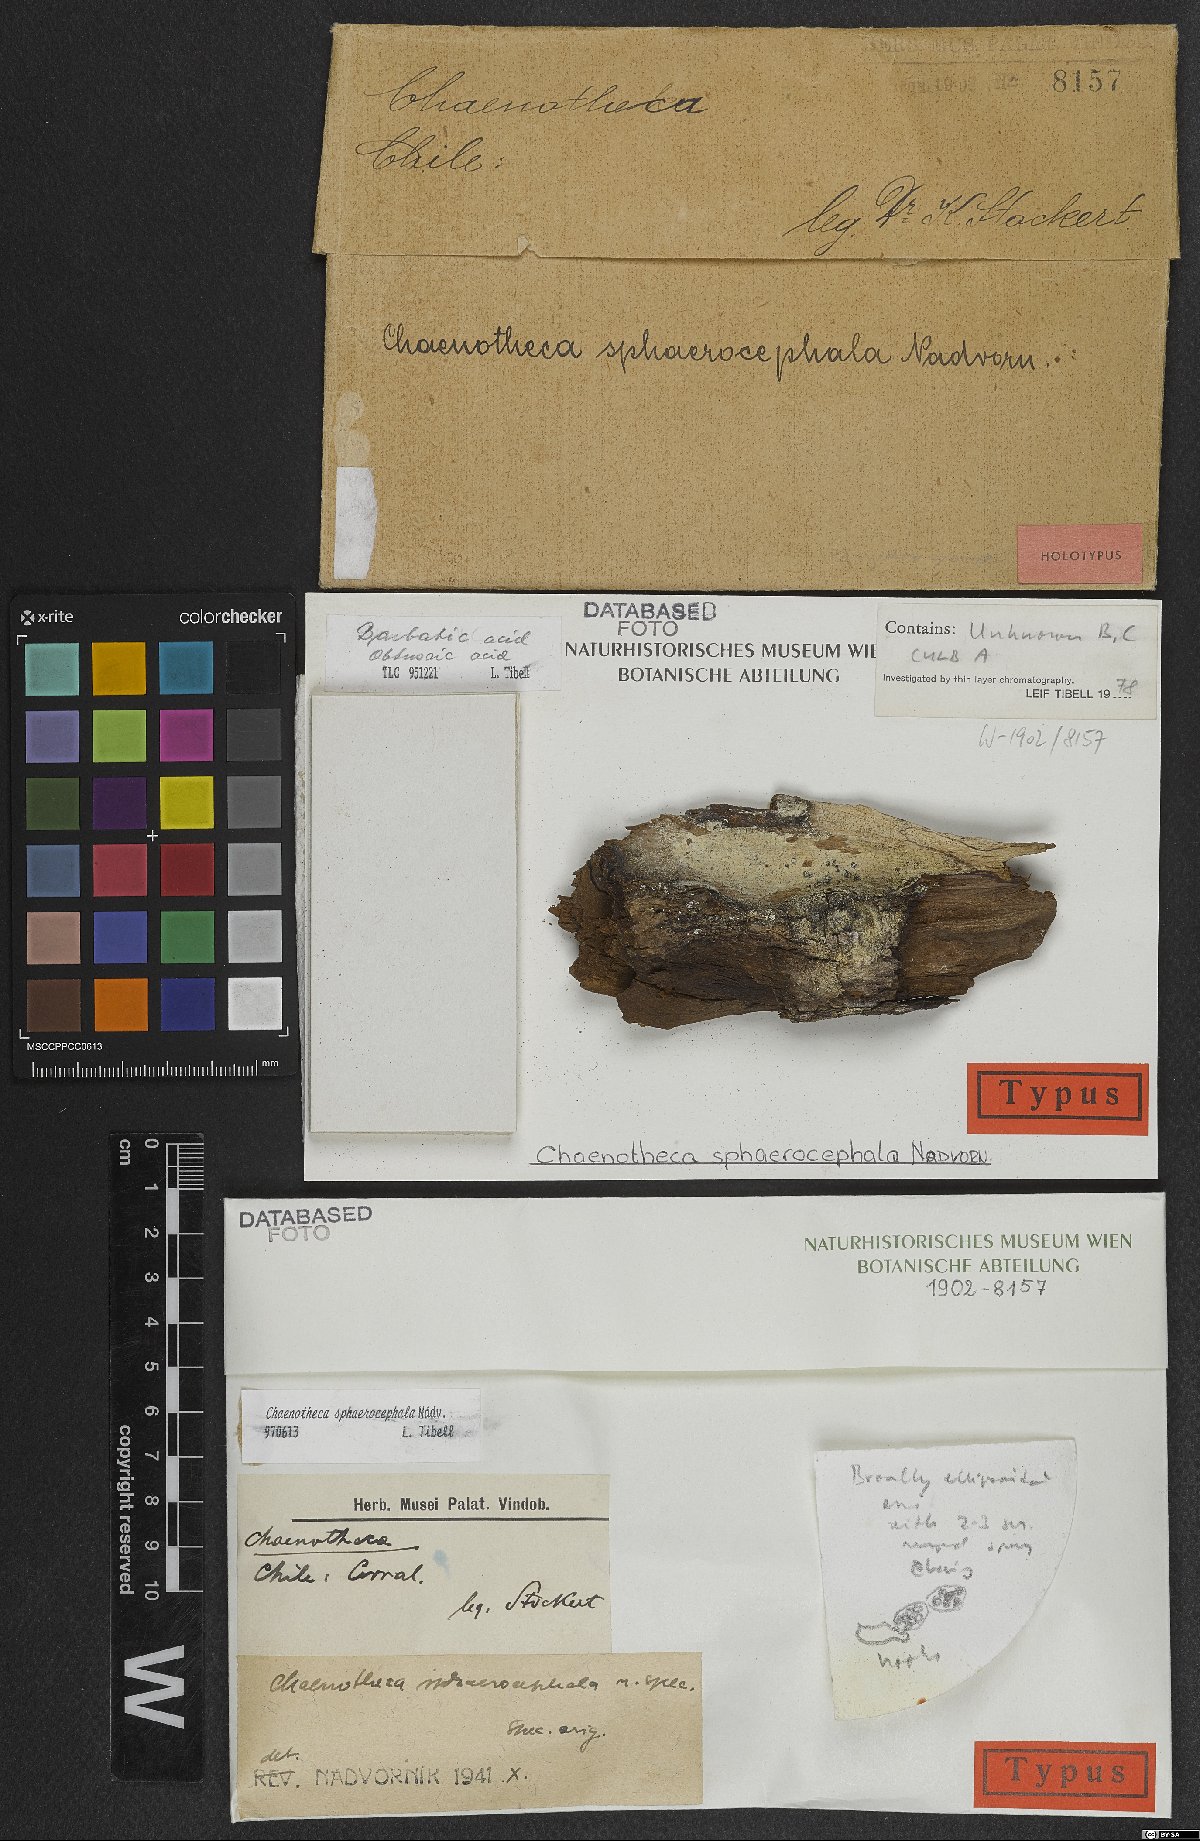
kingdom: Fungi
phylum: Ascomycota
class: Coniocybomycetes
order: Coniocybales
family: Coniocybaceae
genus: Chaenotheca
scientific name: Chaenotheca sphaerocephala
